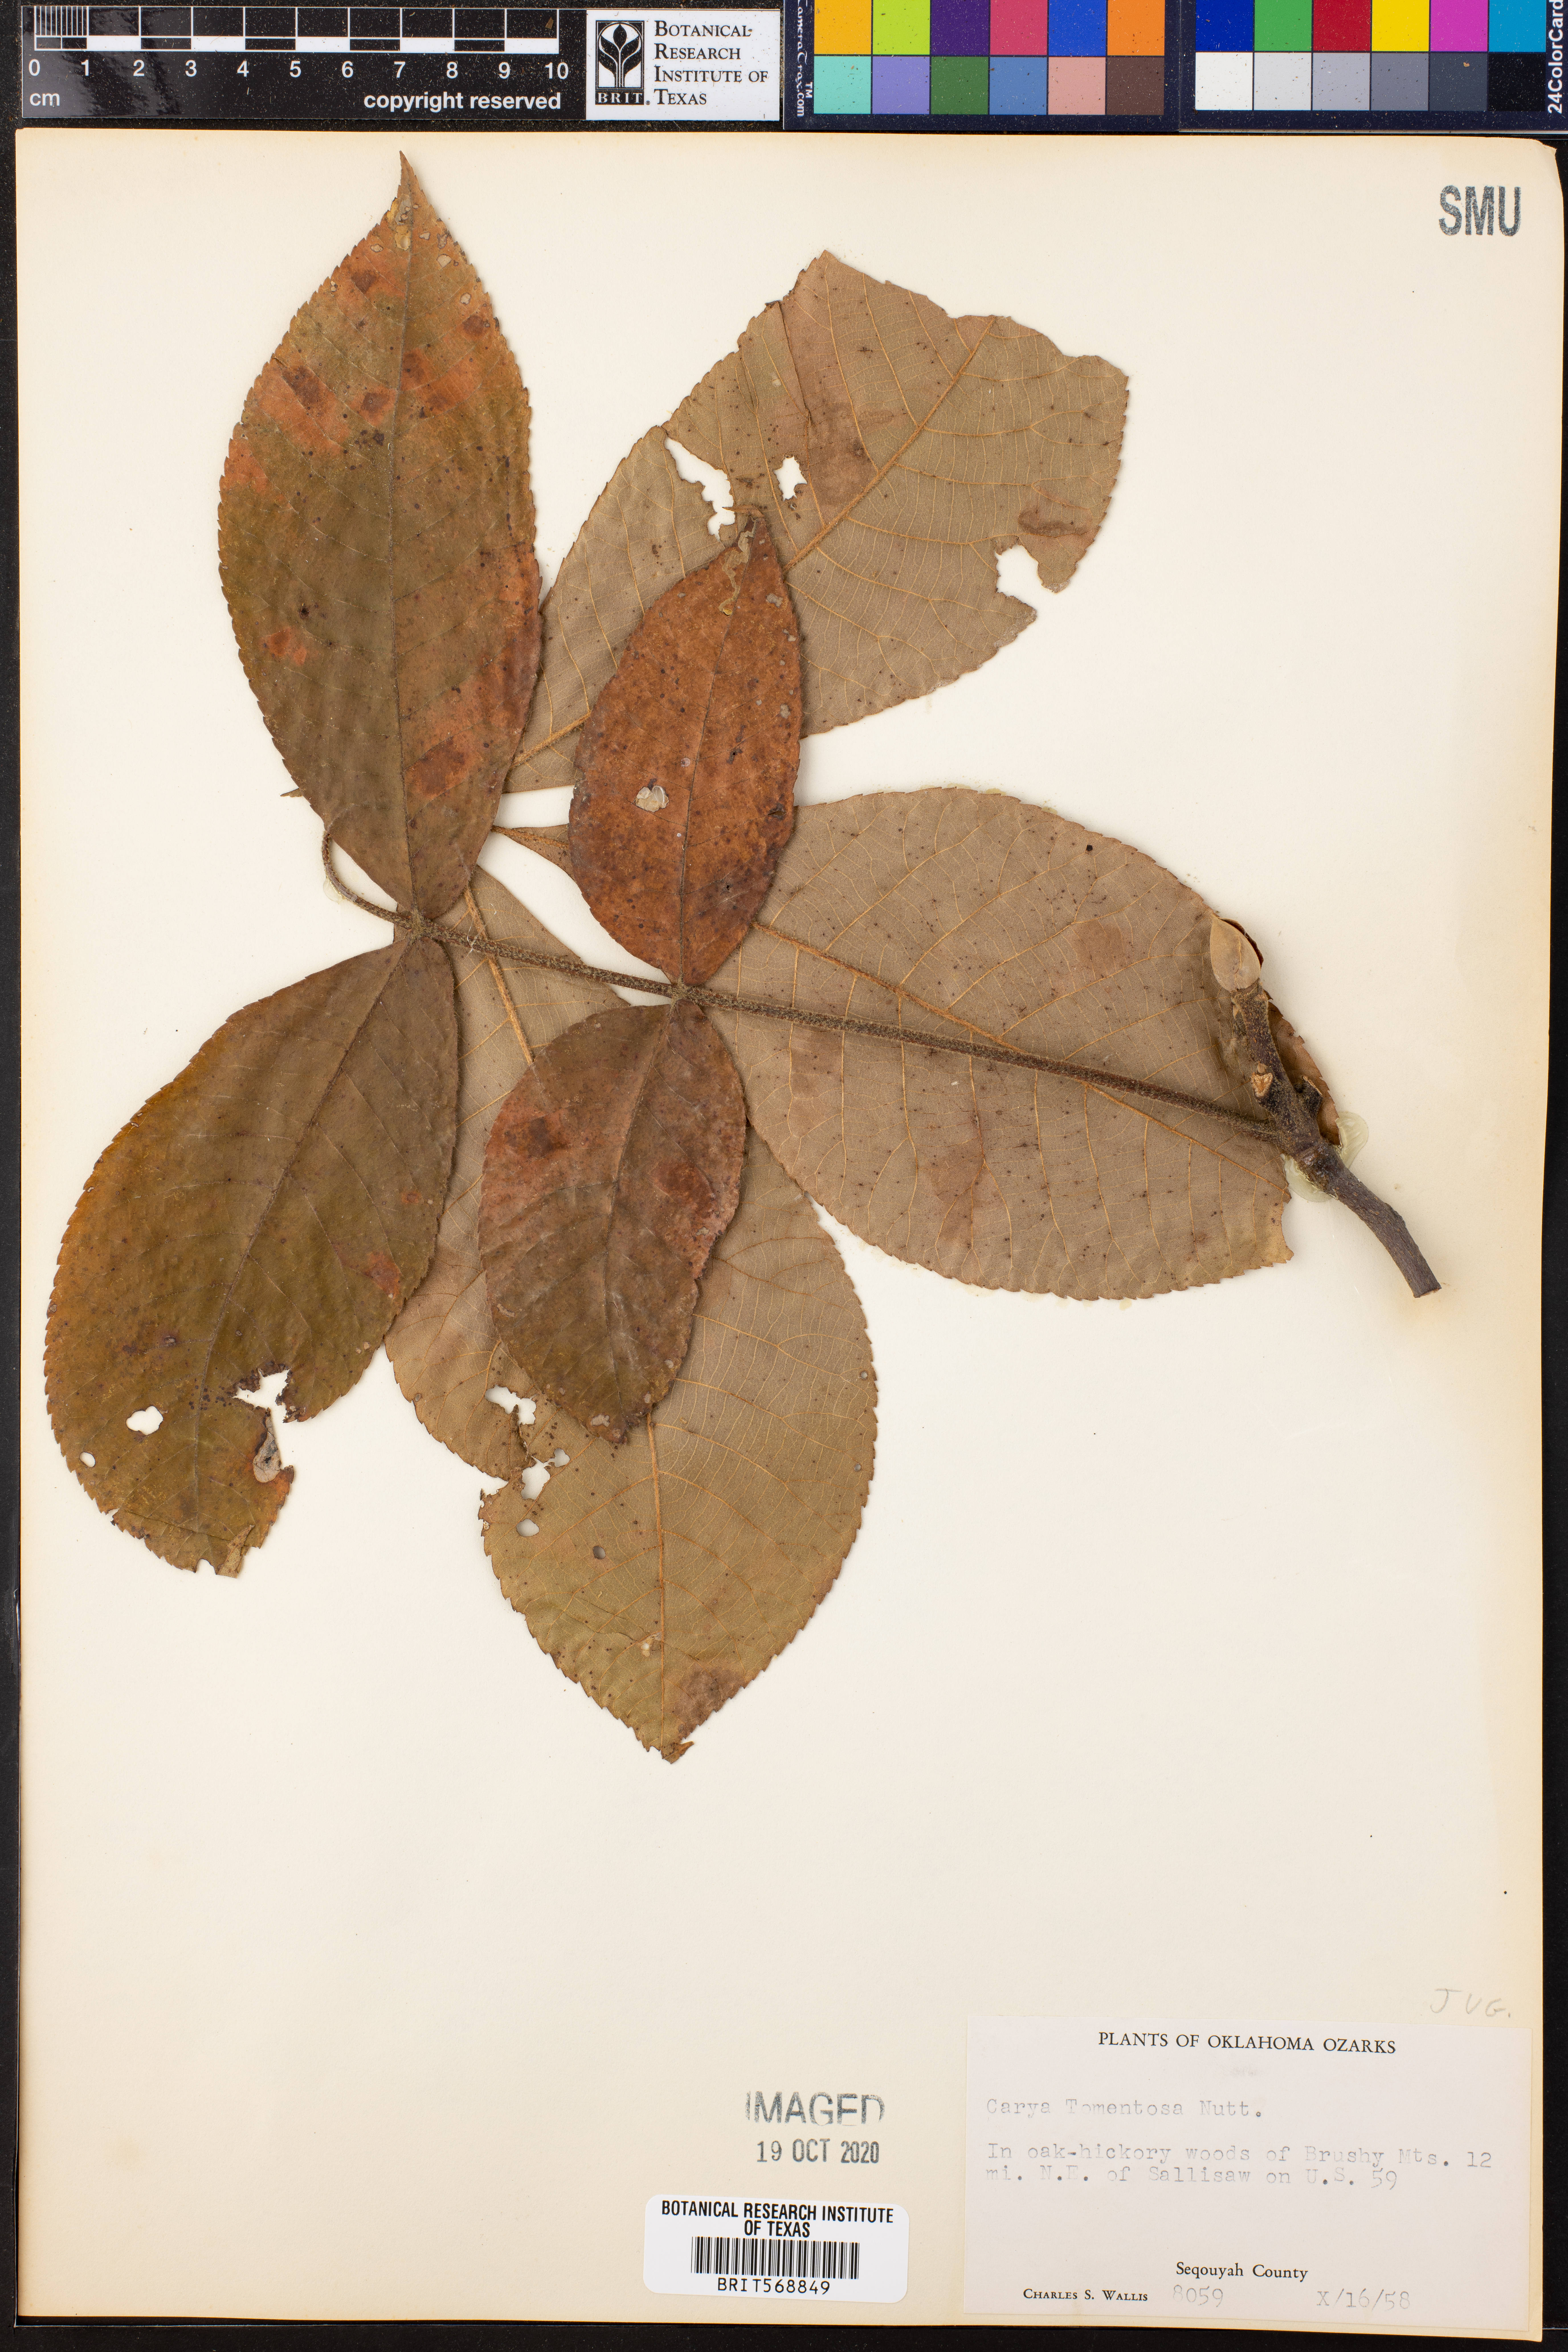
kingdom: Plantae
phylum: Tracheophyta
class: Magnoliopsida
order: Fagales
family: Juglandaceae
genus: Carya
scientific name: Carya alba
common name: Mockernut hickory
